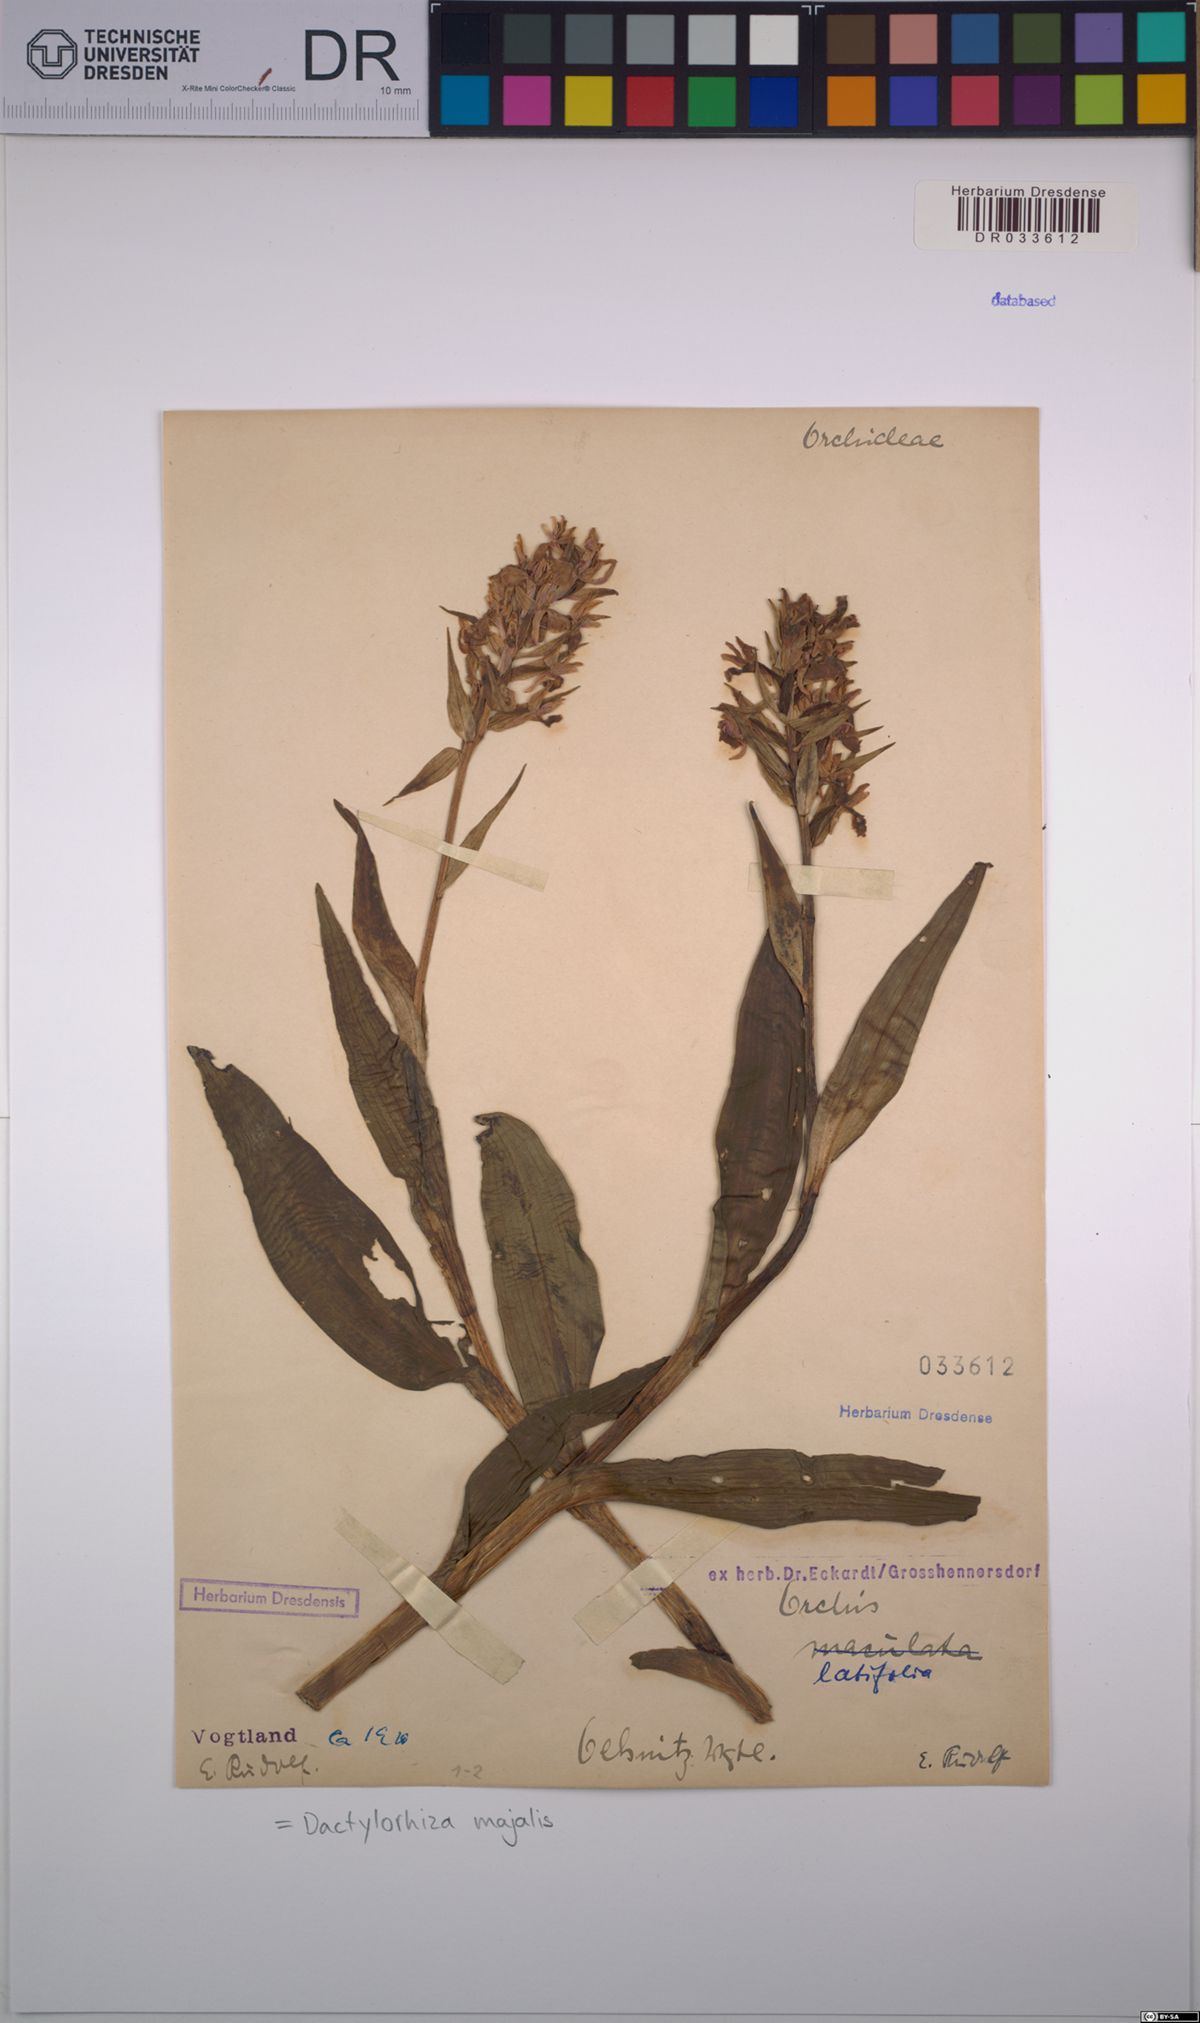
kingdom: Plantae
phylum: Tracheophyta
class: Liliopsida
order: Asparagales
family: Orchidaceae
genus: Dactylorhiza
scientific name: Dactylorhiza majalis
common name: Marsh orchid
